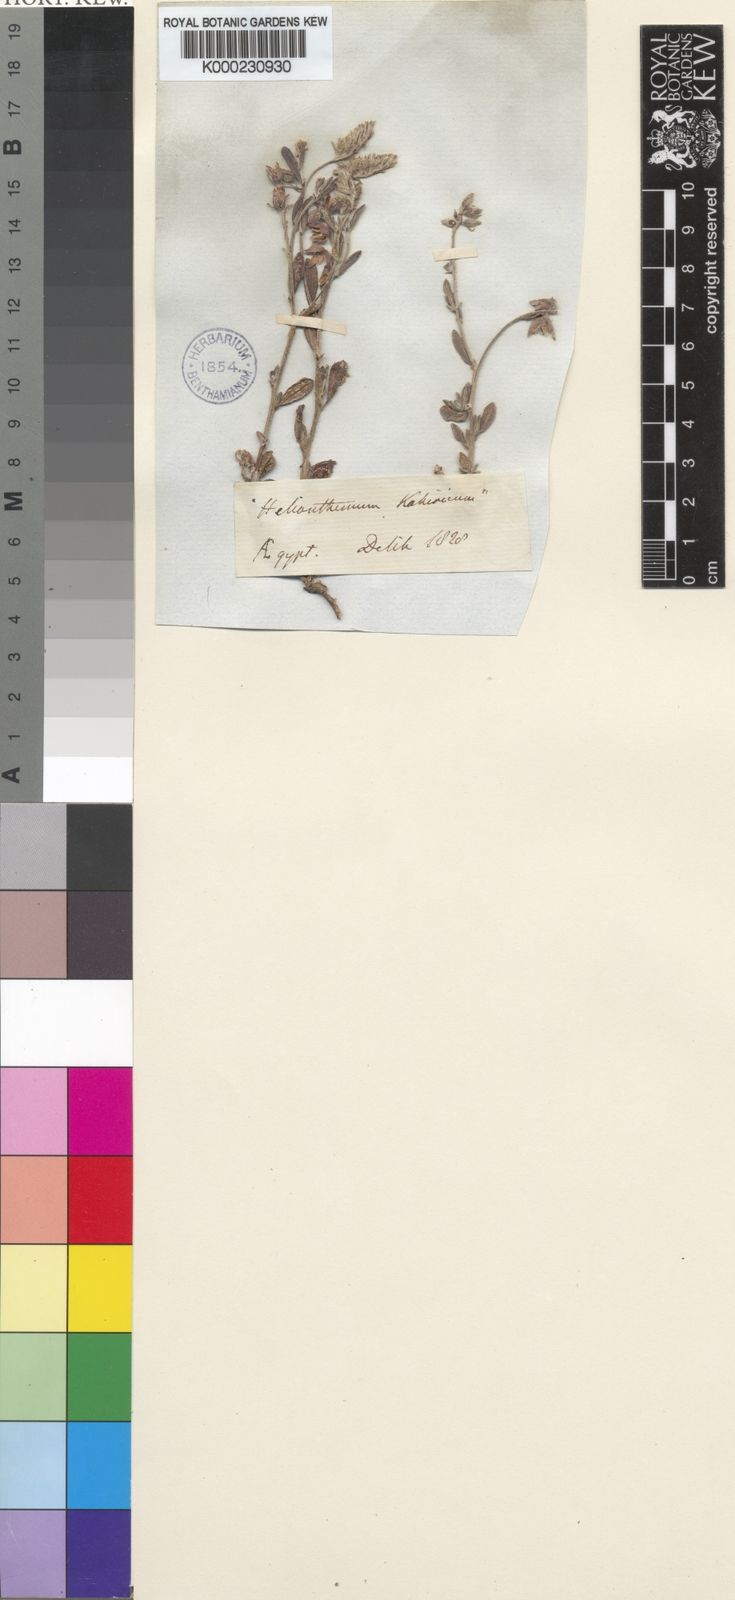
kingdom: Plantae
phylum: Tracheophyta
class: Magnoliopsida
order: Malvales
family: Cistaceae
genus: Helianthemum
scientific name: Helianthemum kahiricum
